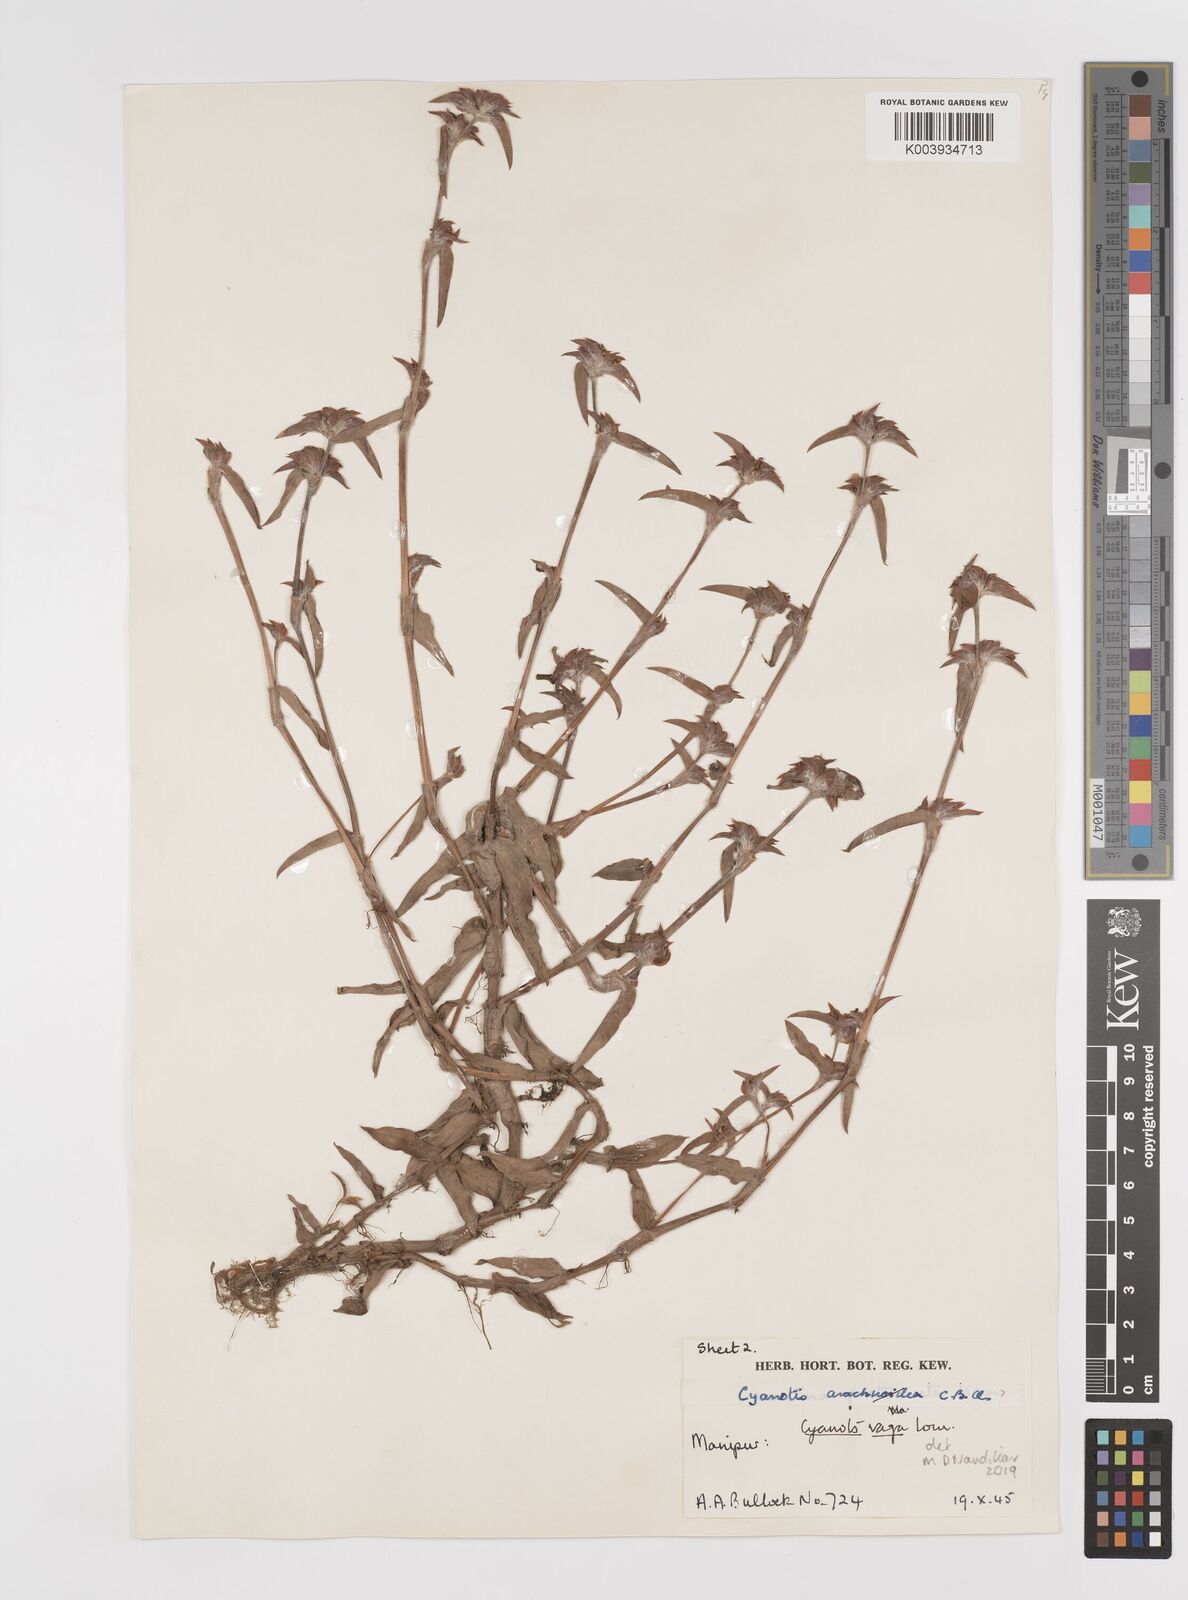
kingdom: Plantae
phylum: Tracheophyta
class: Liliopsida
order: Commelinales
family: Commelinaceae
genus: Cyanotis
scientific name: Cyanotis vaga
